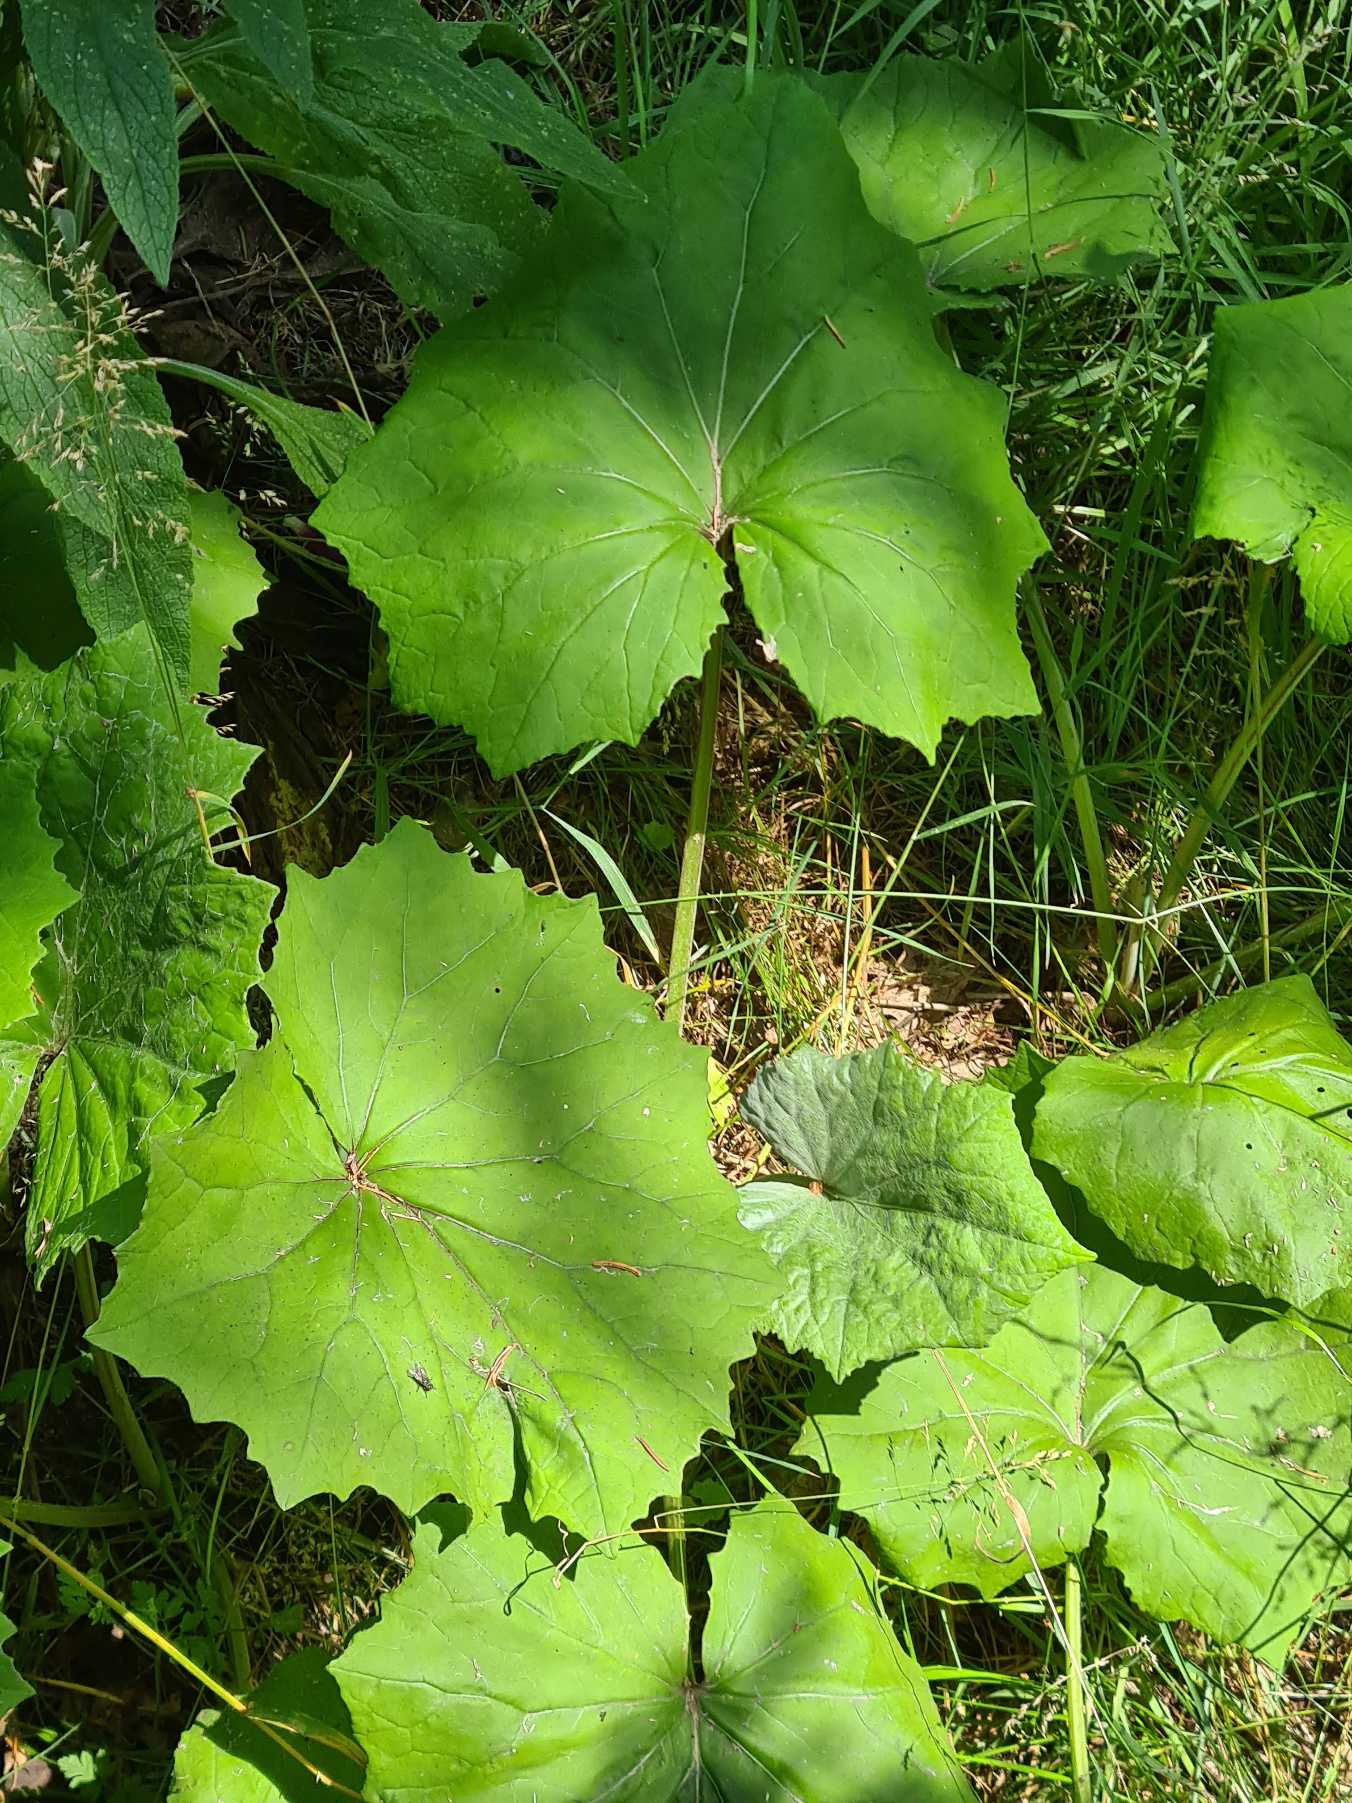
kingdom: Plantae
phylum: Tracheophyta
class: Magnoliopsida
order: Asterales
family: Asteraceae
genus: Tussilago
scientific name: Tussilago farfara
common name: Følfod
